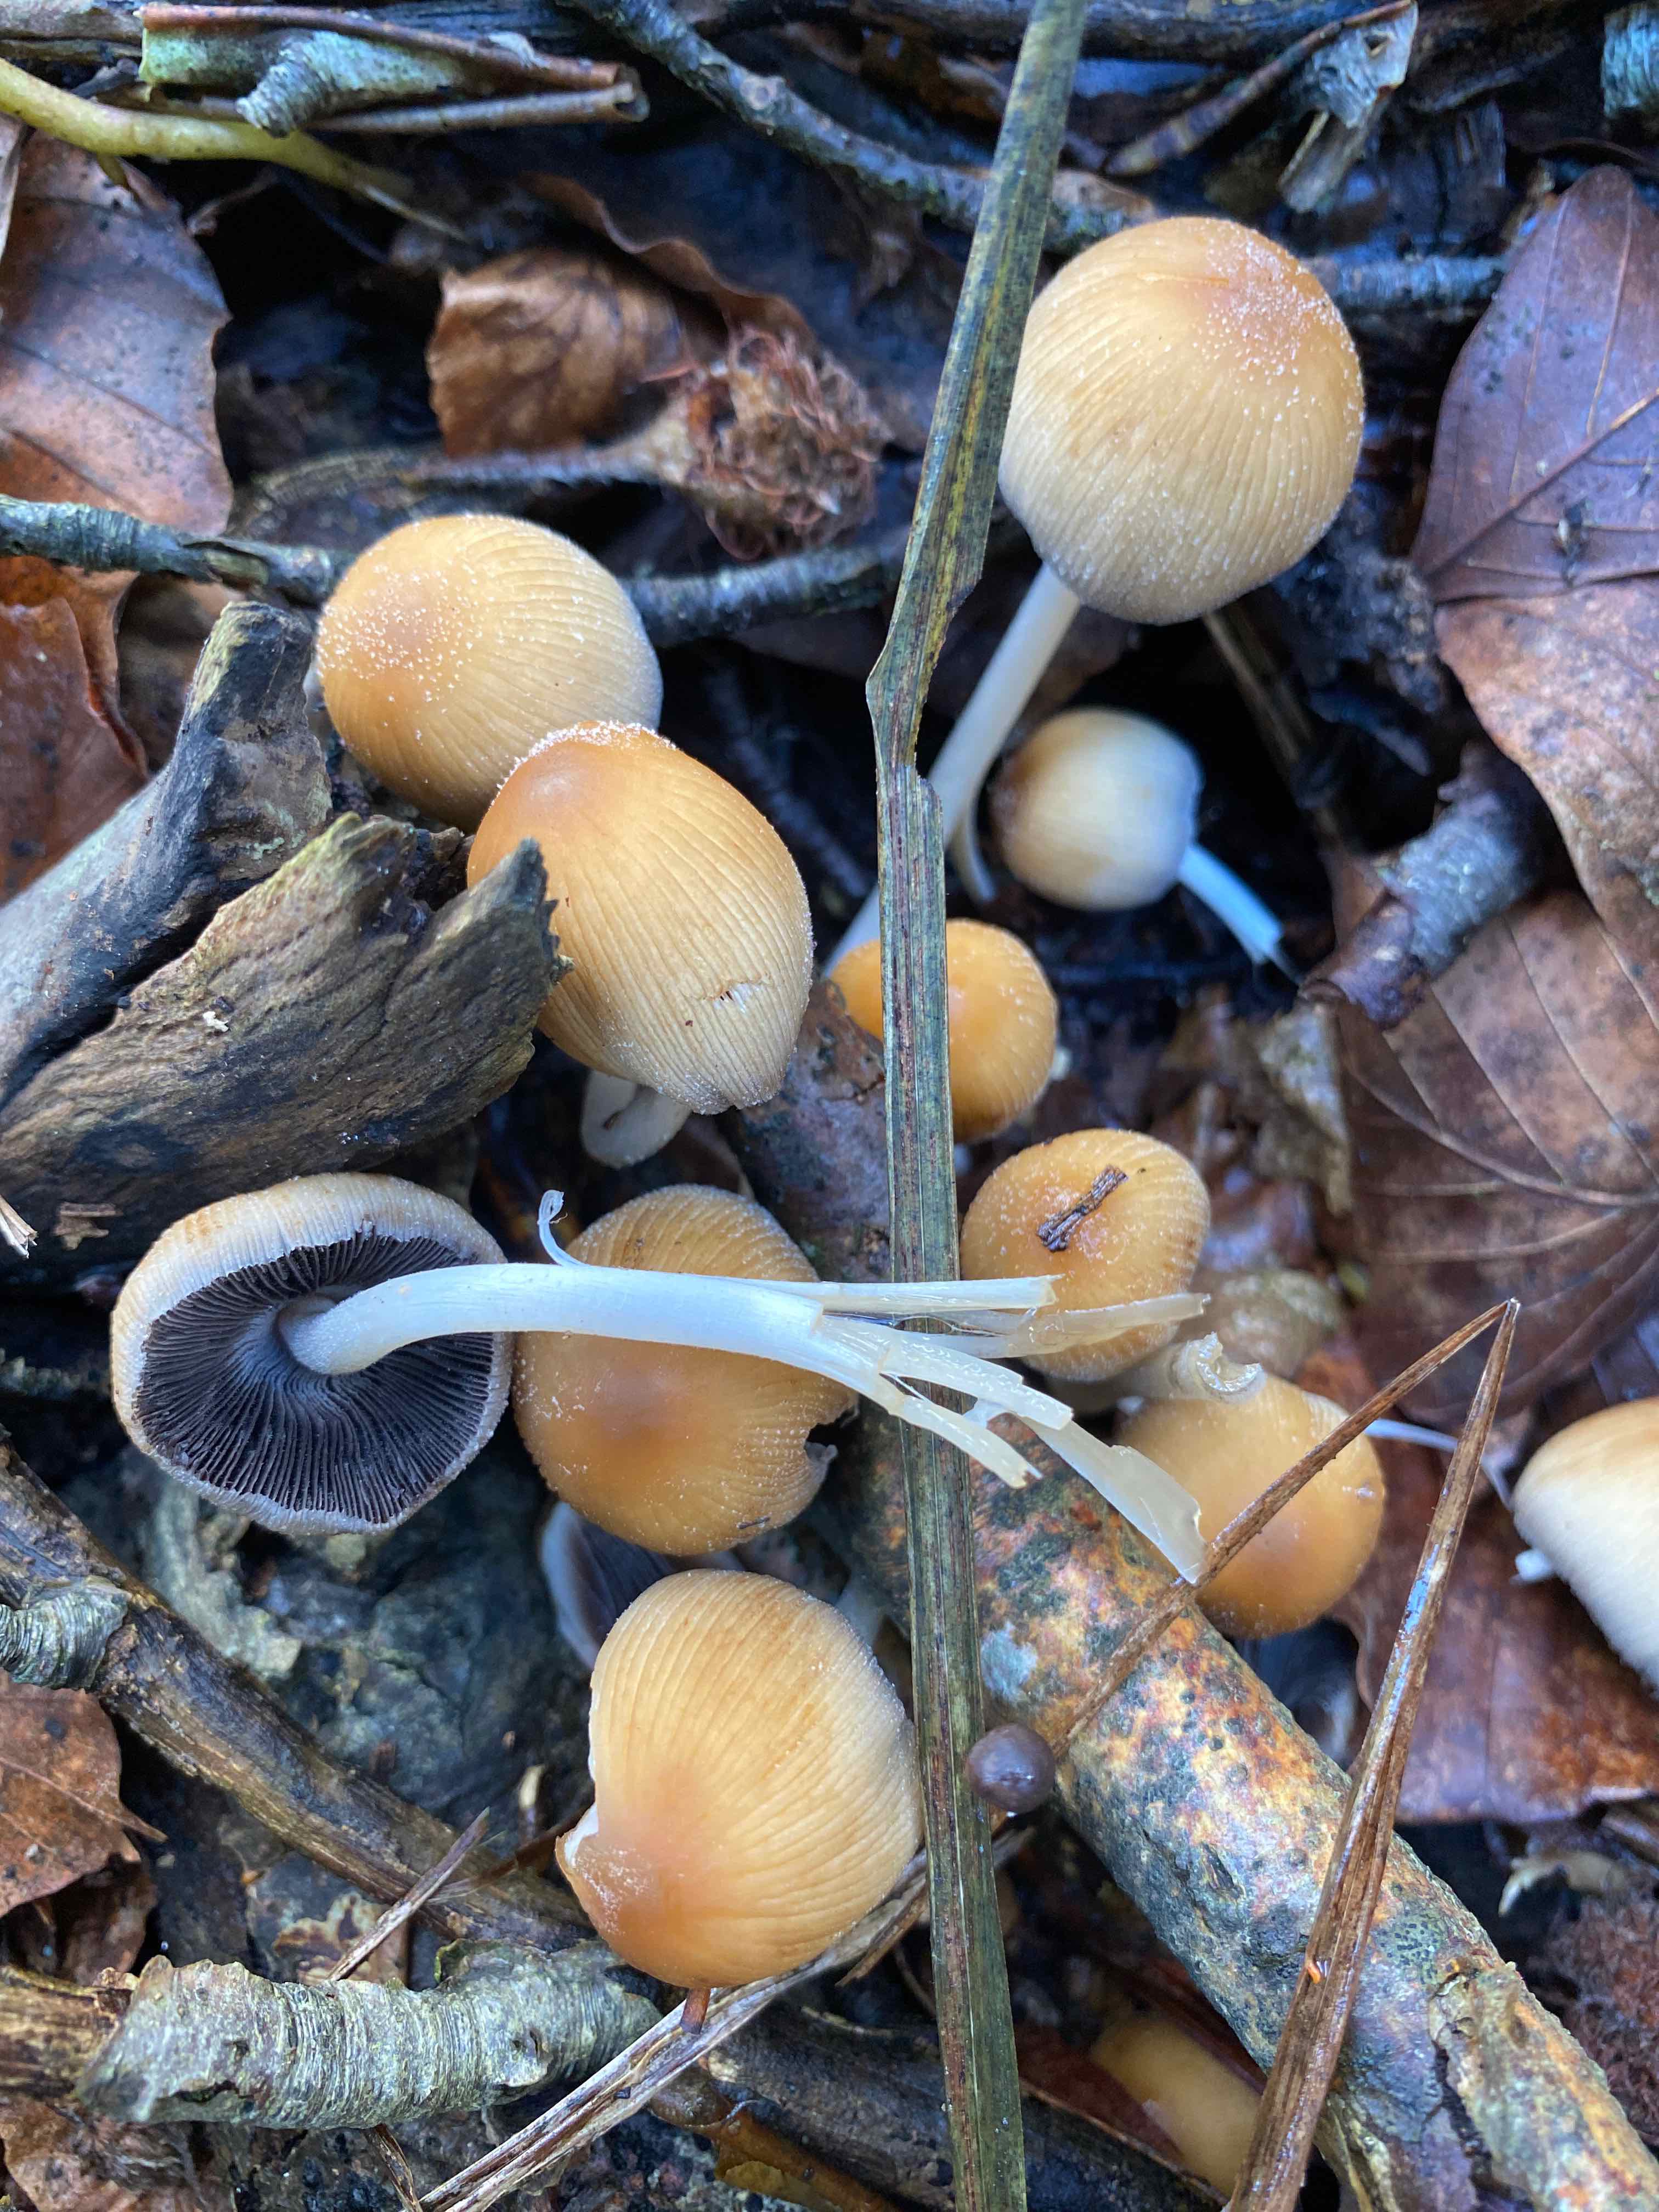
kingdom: Fungi
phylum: Basidiomycota
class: Agaricomycetes
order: Agaricales
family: Psathyrellaceae
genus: Coprinellus
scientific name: Coprinellus micaceus
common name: glimmer-blækhat
